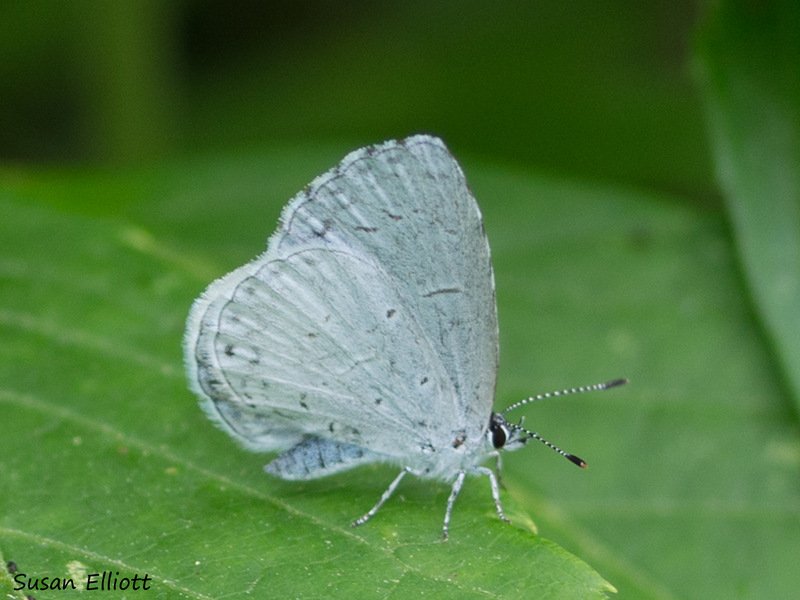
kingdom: Animalia
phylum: Arthropoda
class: Insecta
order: Lepidoptera
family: Lycaenidae
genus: Celastrina
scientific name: Celastrina
